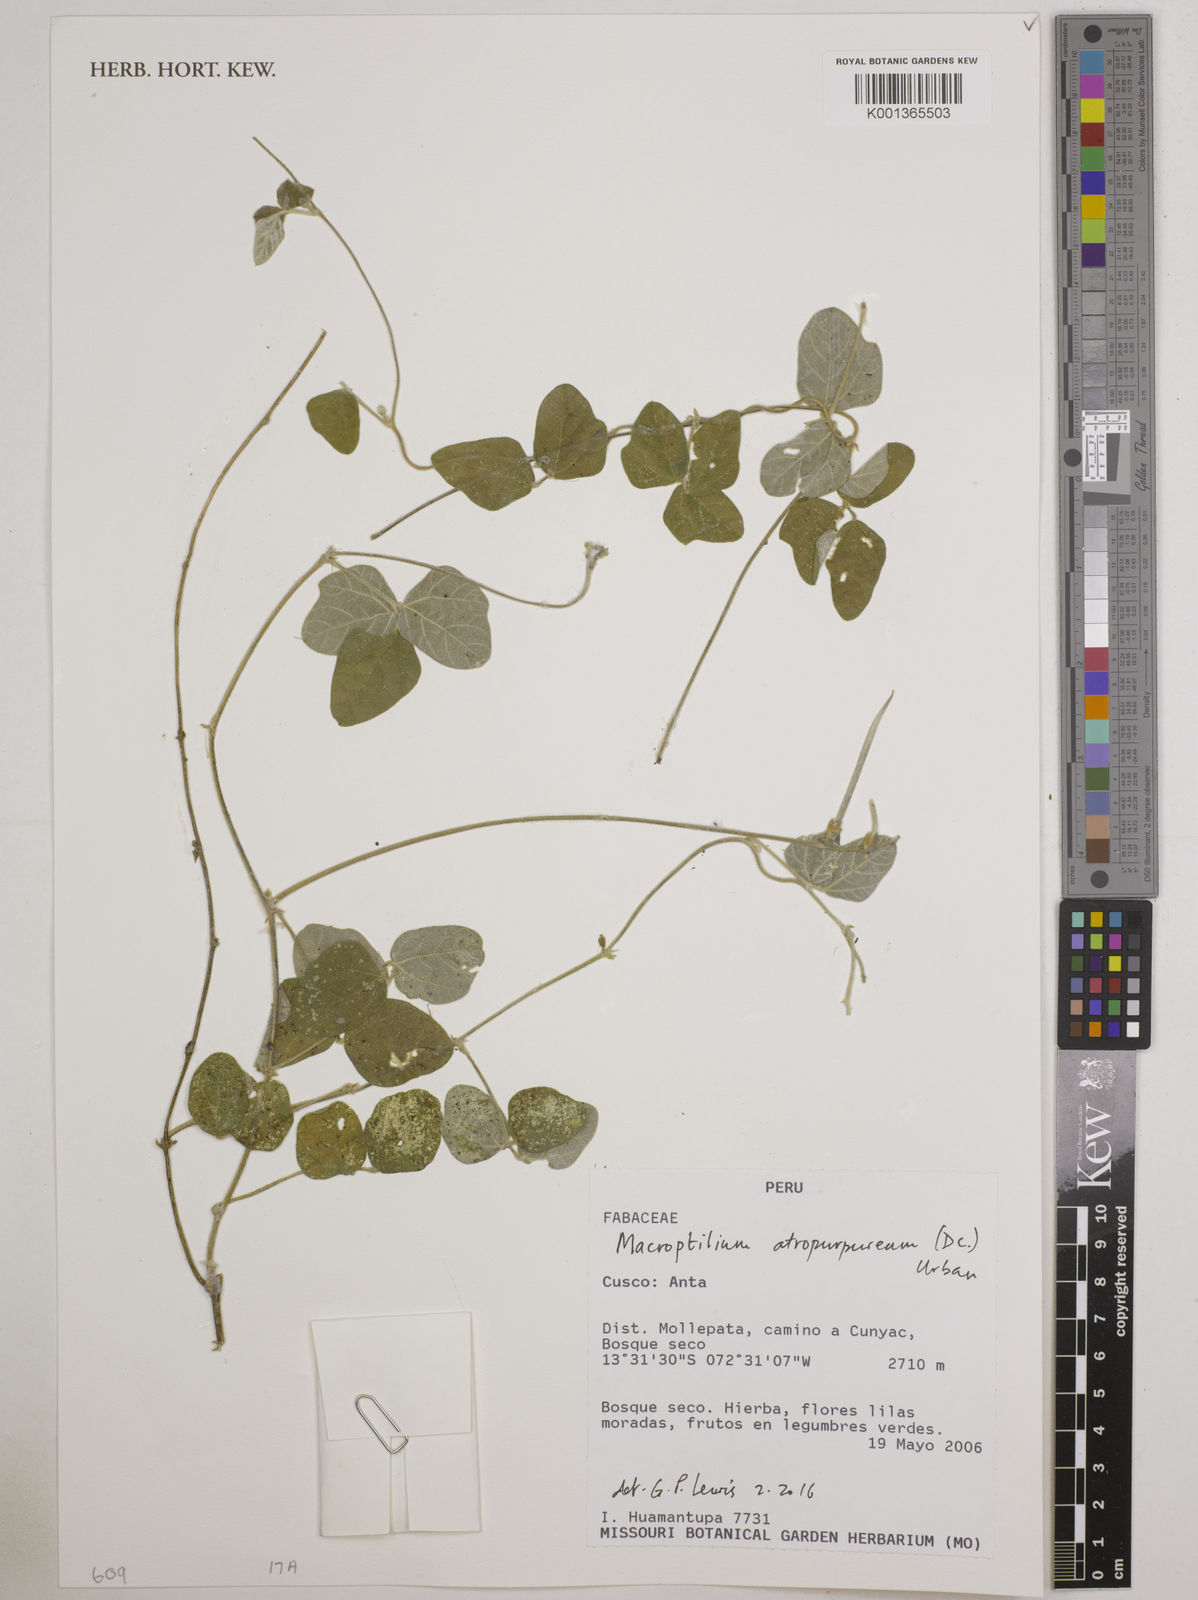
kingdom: Plantae
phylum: Tracheophyta
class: Magnoliopsida
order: Fabales
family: Fabaceae
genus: Macroptilium
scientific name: Macroptilium atropurpureum
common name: Purple bushbean
